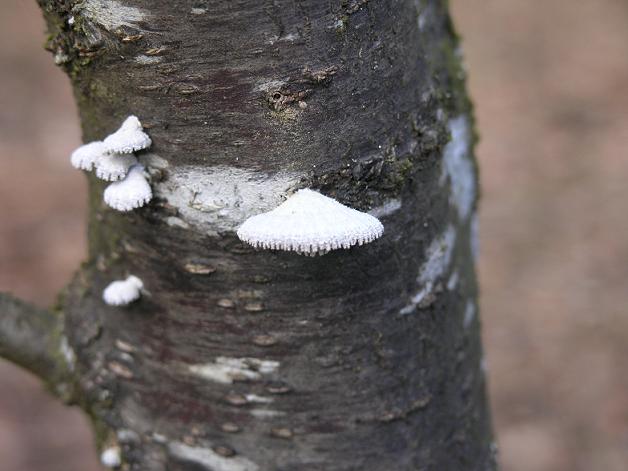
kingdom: Fungi
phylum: Basidiomycota
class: Agaricomycetes
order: Agaricales
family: Schizophyllaceae
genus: Schizophyllum
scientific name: Schizophyllum commune
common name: kløvblad
